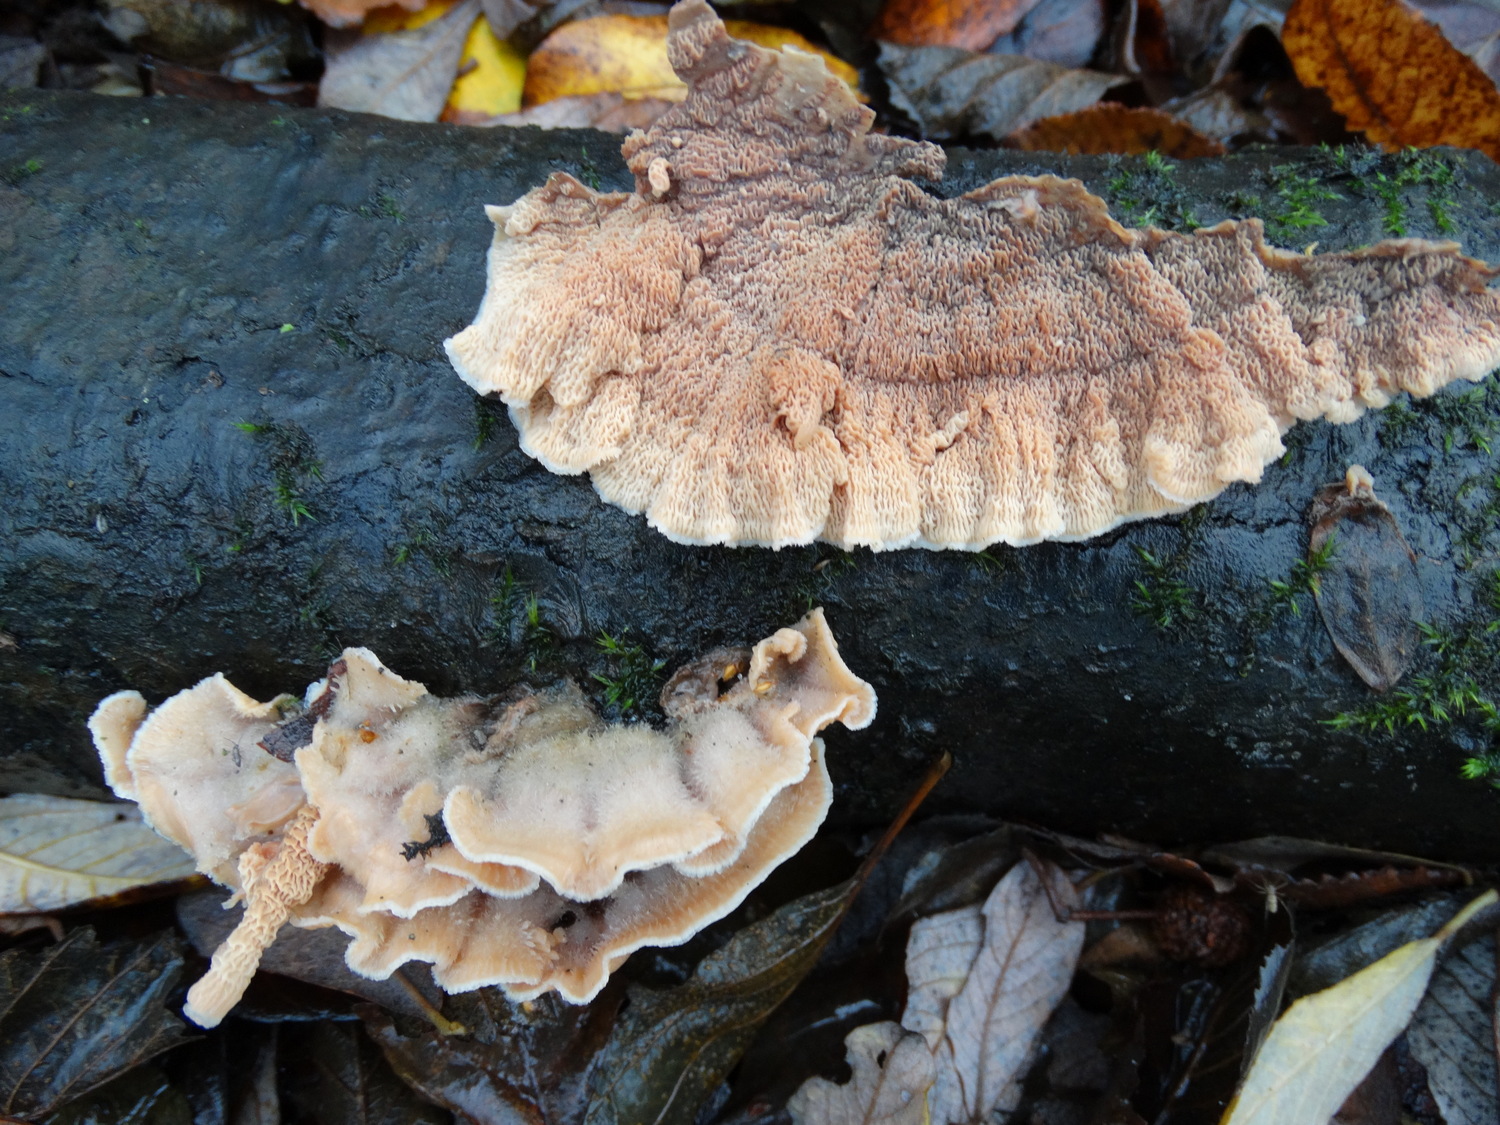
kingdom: Fungi
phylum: Basidiomycota
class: Agaricomycetes
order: Polyporales
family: Meruliaceae
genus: Phlebia
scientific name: Phlebia tremellosa
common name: bævrende åresvamp
